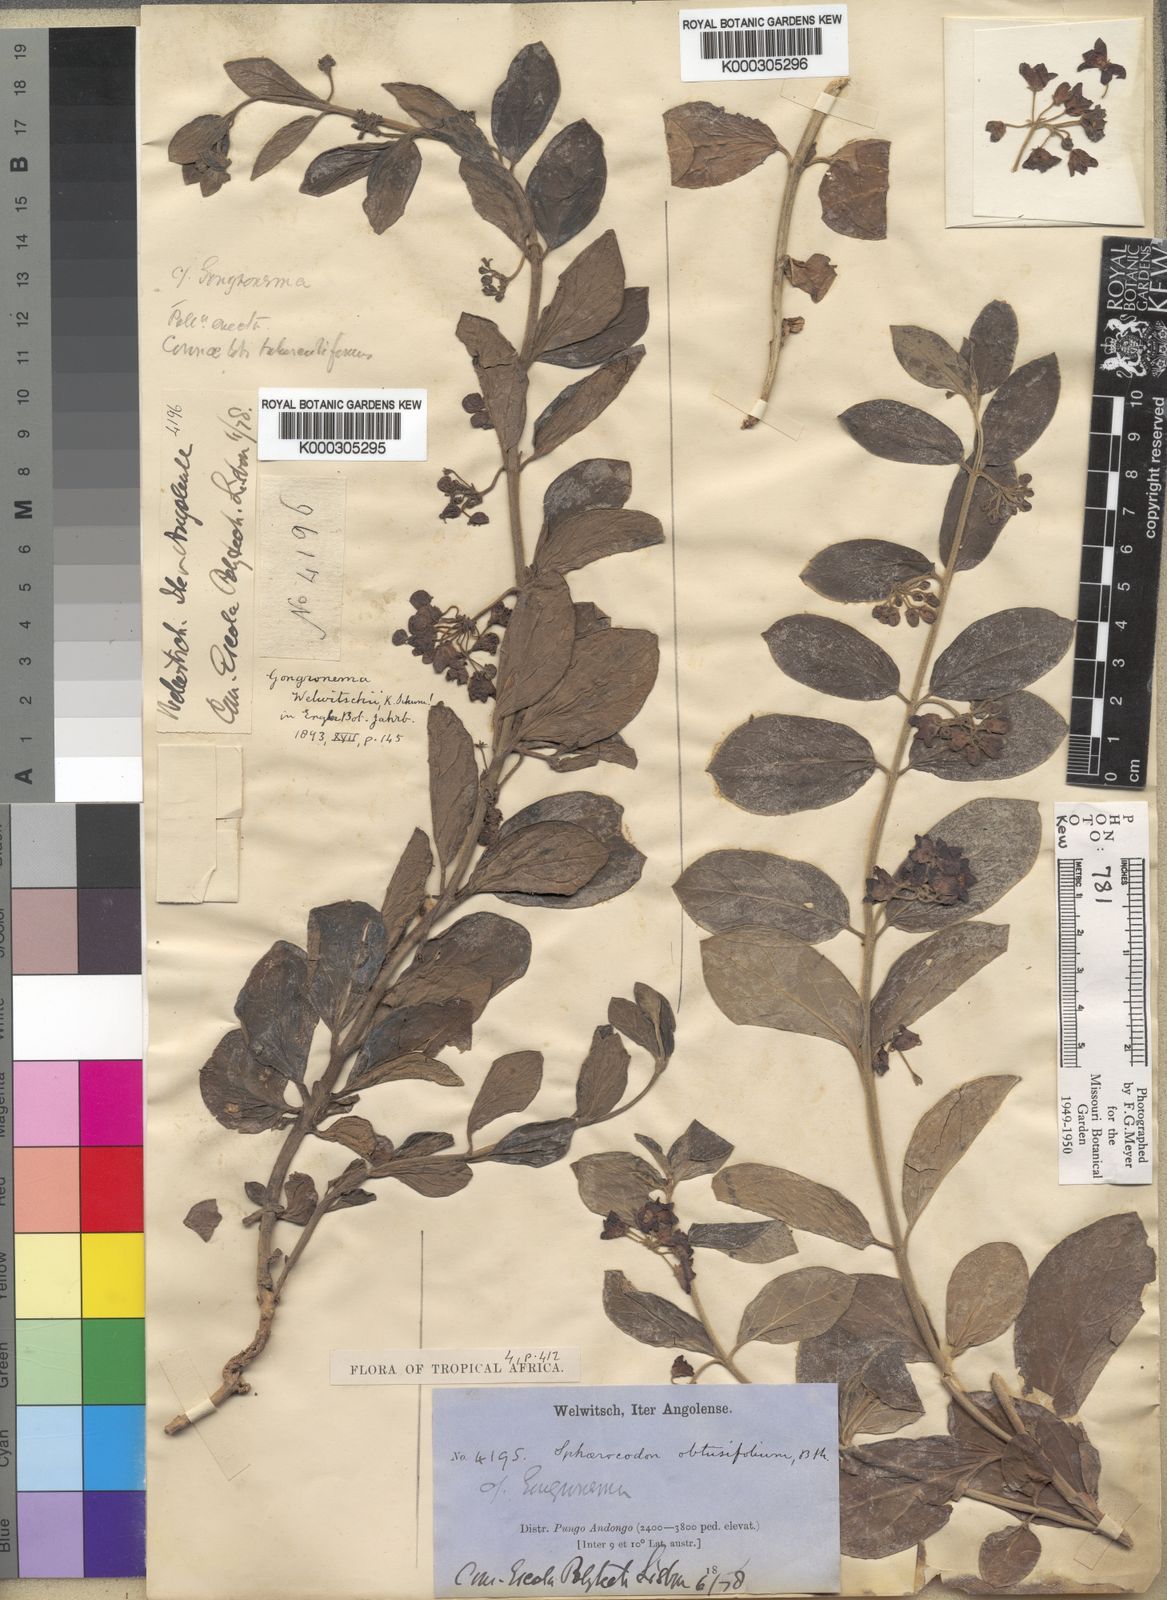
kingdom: Plantae
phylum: Tracheophyta
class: Magnoliopsida
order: Gentianales
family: Apocynaceae
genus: Vincetoxicum
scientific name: Vincetoxicum caffrum
